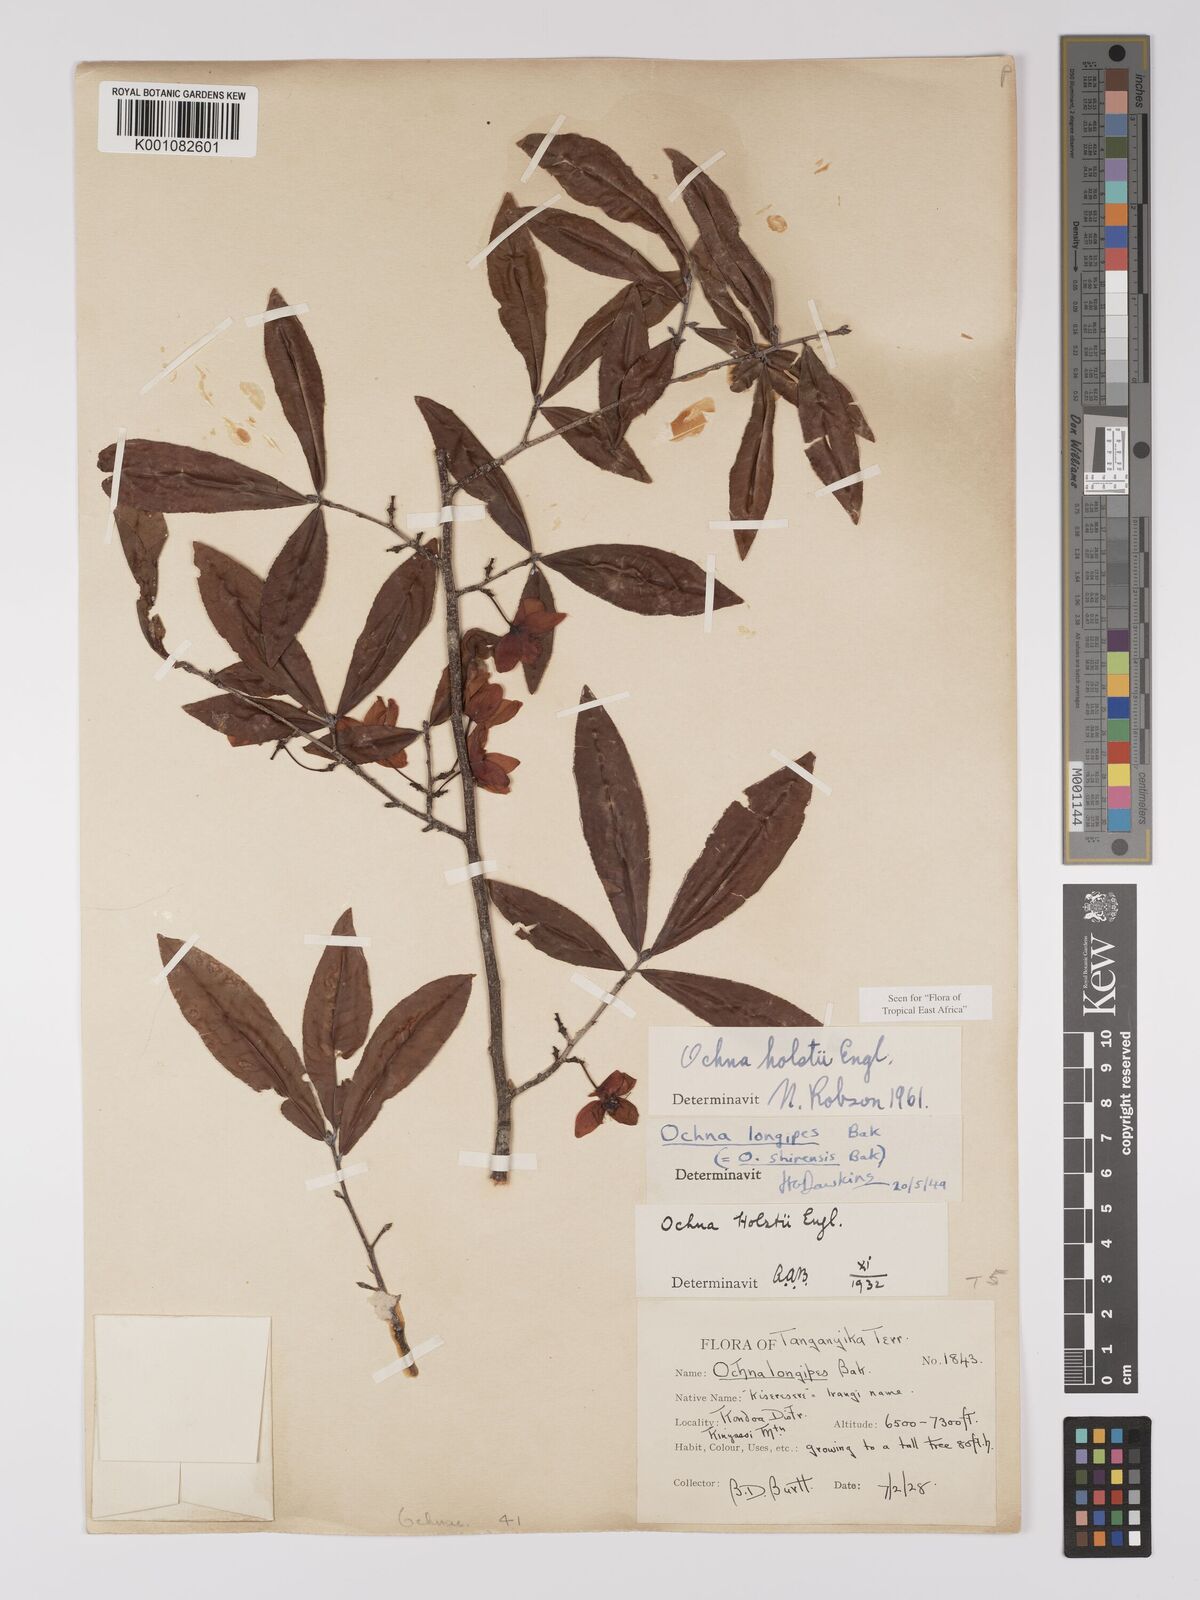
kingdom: Plantae
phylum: Tracheophyta
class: Magnoliopsida
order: Malpighiales
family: Ochnaceae
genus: Ochna
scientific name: Ochna holstii
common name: Red ironwood
